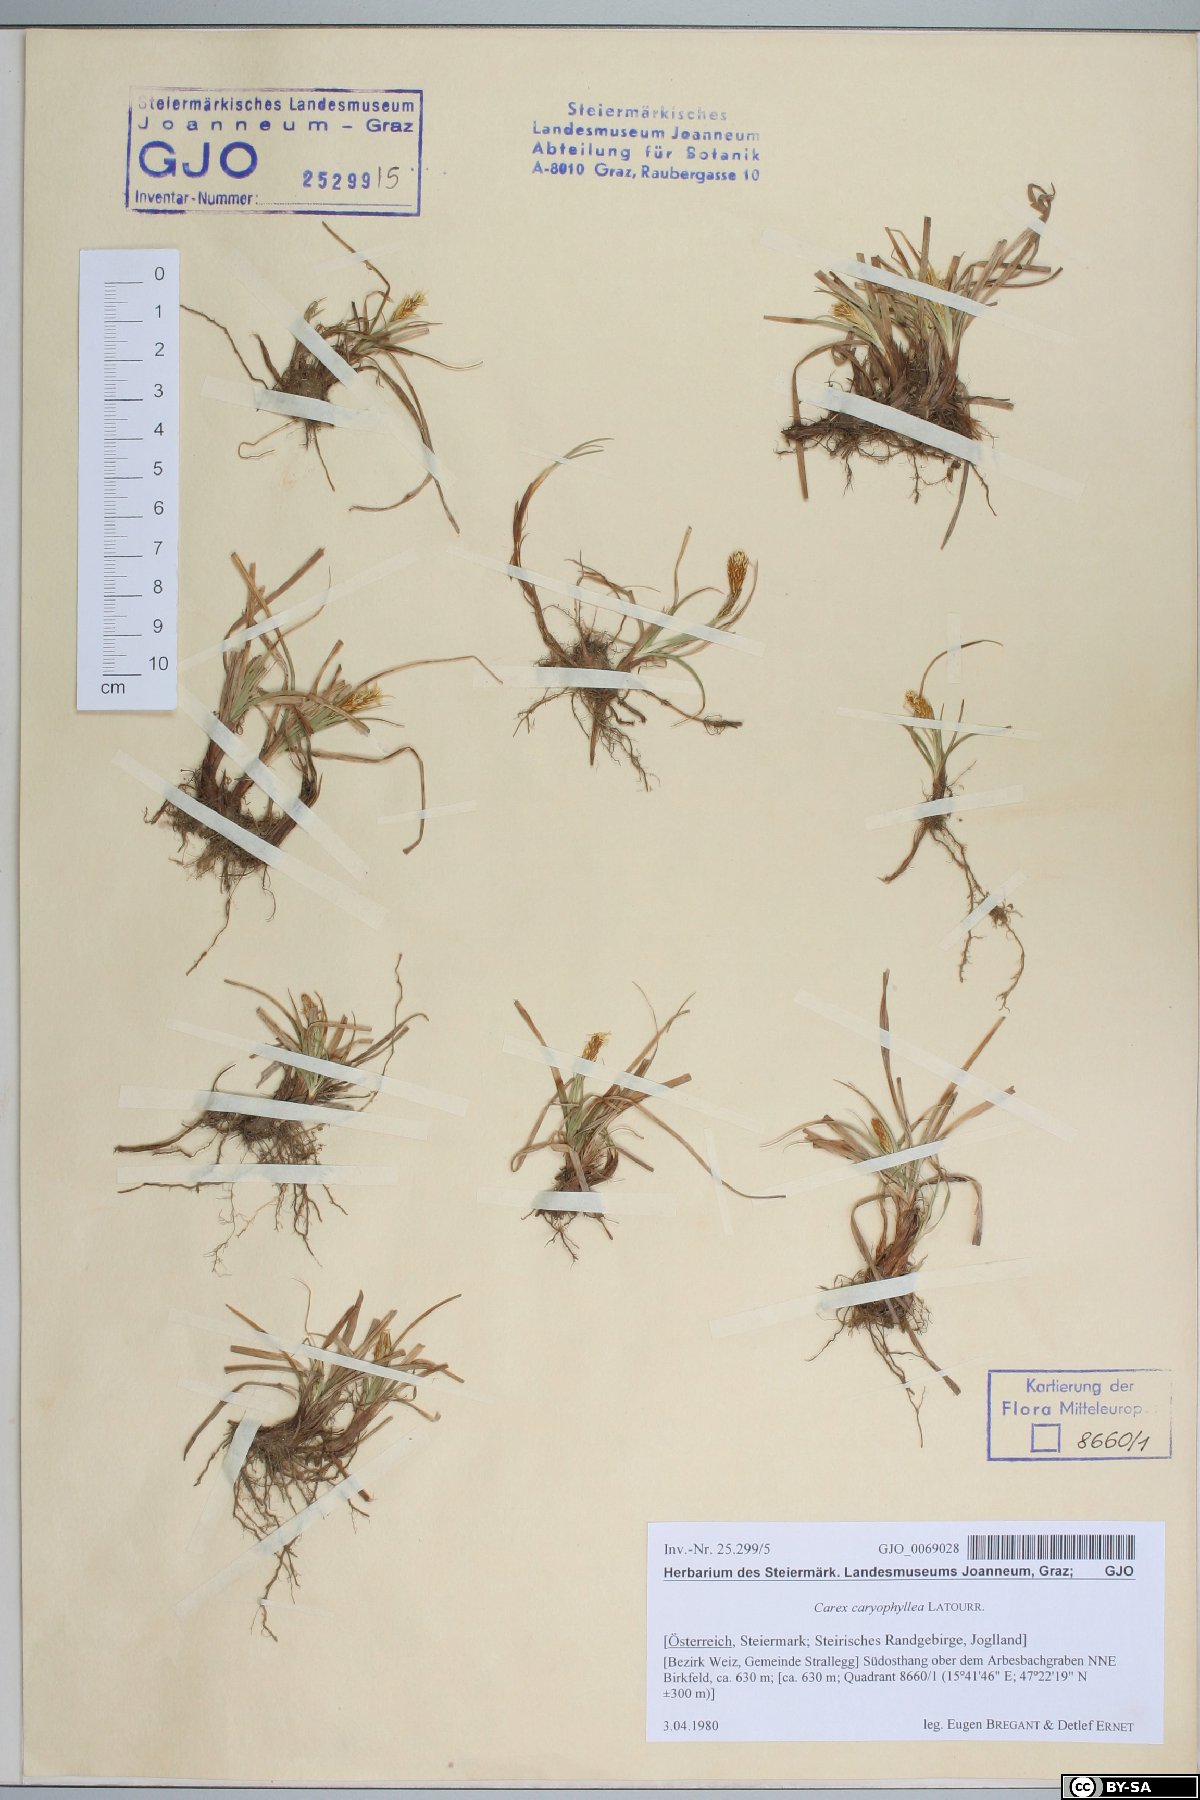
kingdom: Plantae
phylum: Tracheophyta
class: Liliopsida
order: Poales
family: Cyperaceae
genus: Carex
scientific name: Carex caryophyllea
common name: Spring sedge
